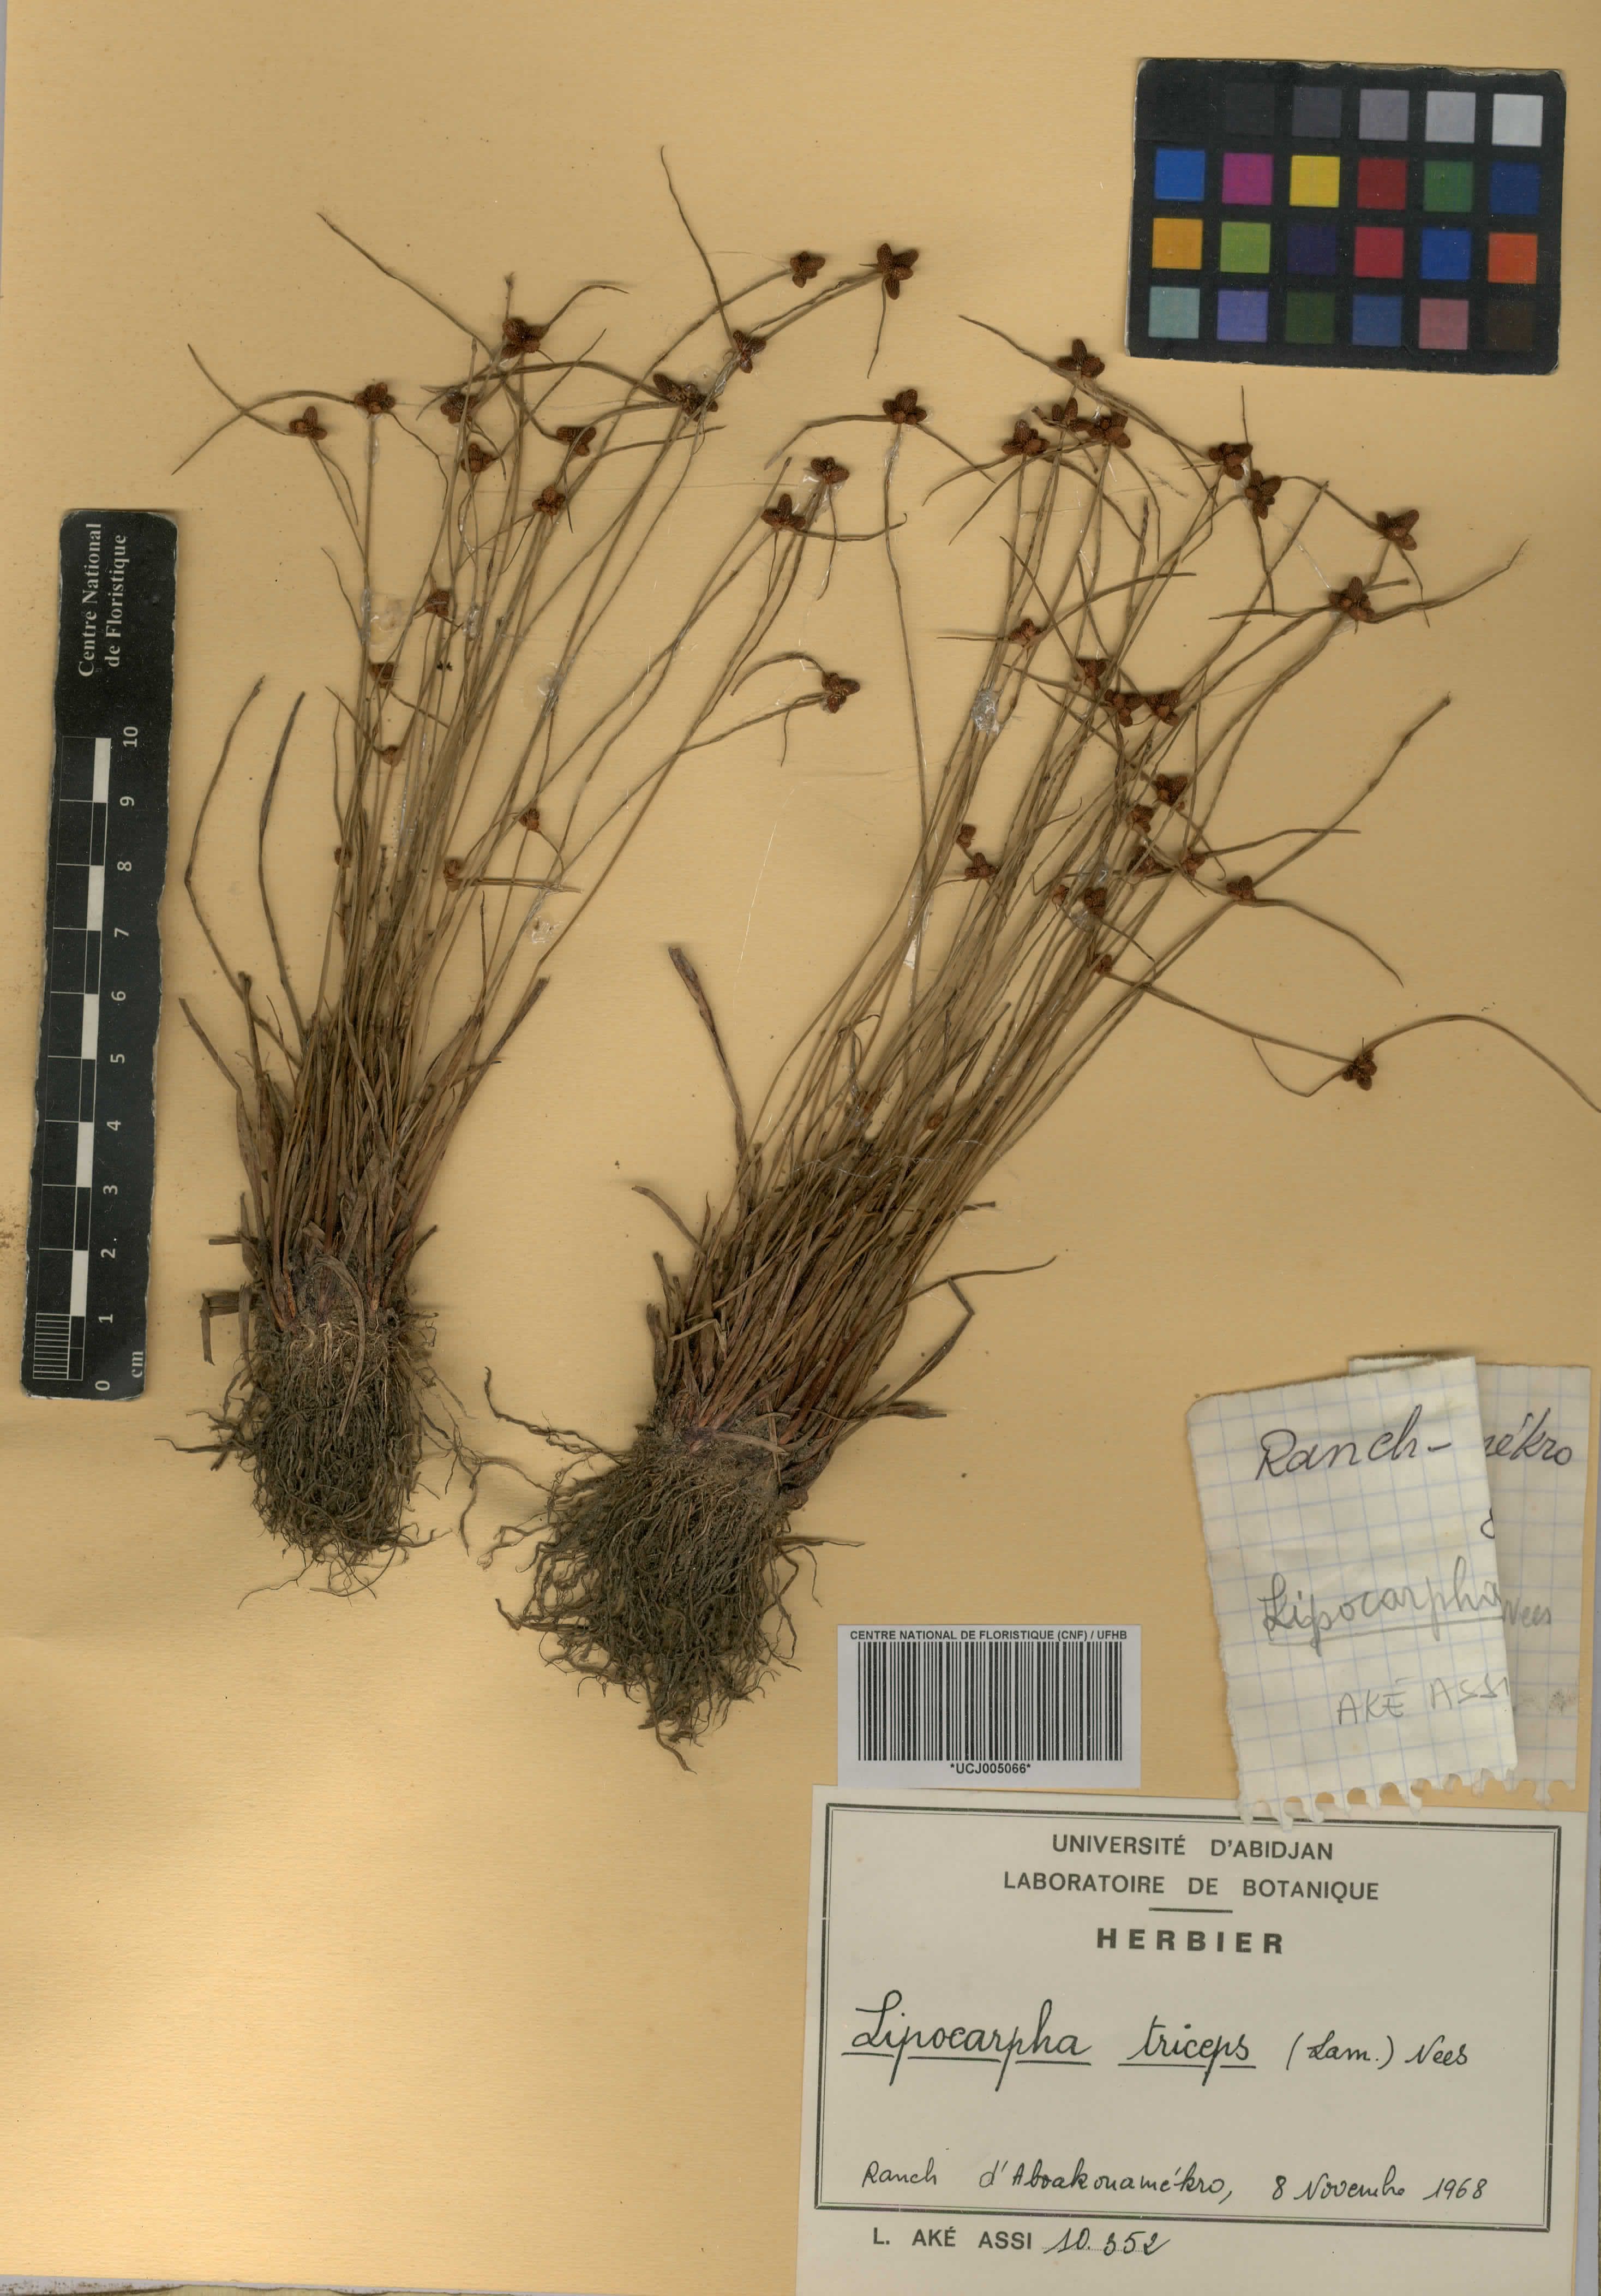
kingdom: Plantae
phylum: Tracheophyta
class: Liliopsida
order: Poales
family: Cyperaceae
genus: Cyperus
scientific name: Cyperus ceylanicus
